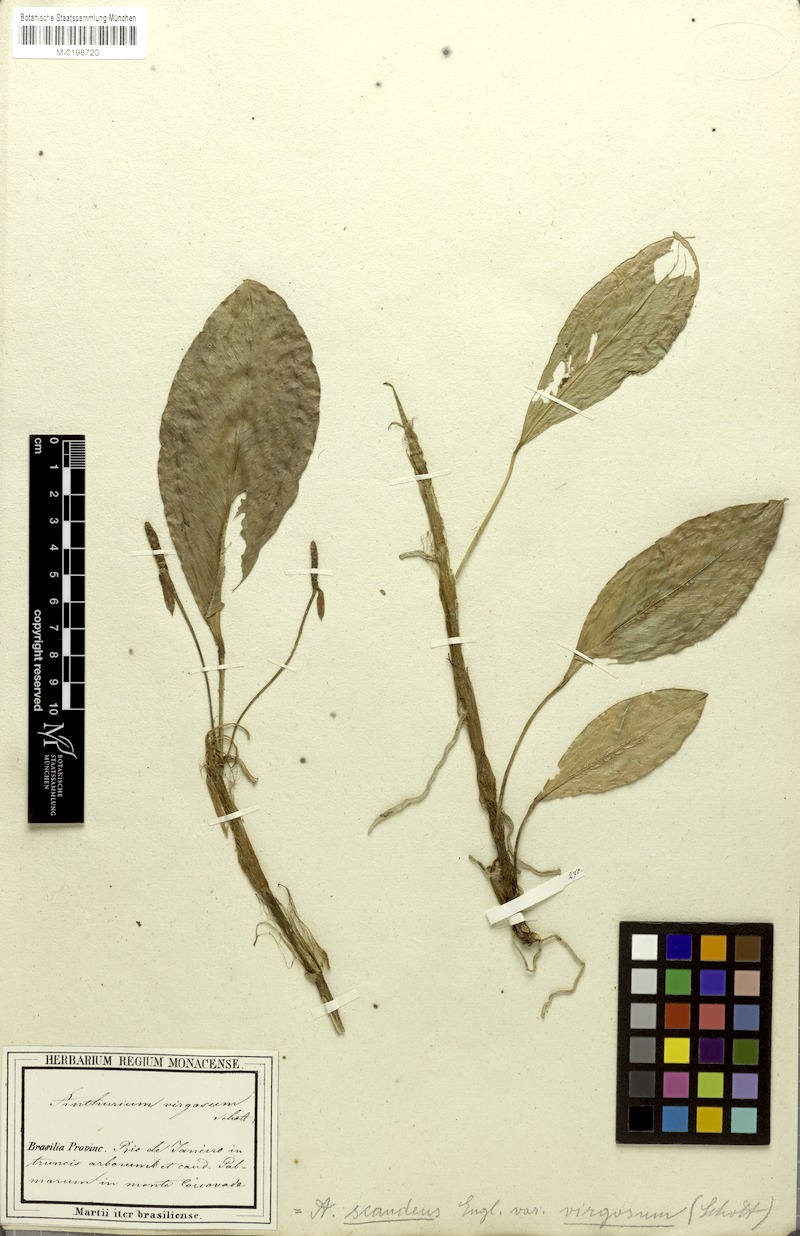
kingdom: Plantae
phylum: Tracheophyta
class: Liliopsida
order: Alismatales
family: Araceae
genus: Anthurium
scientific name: Anthurium scandens
